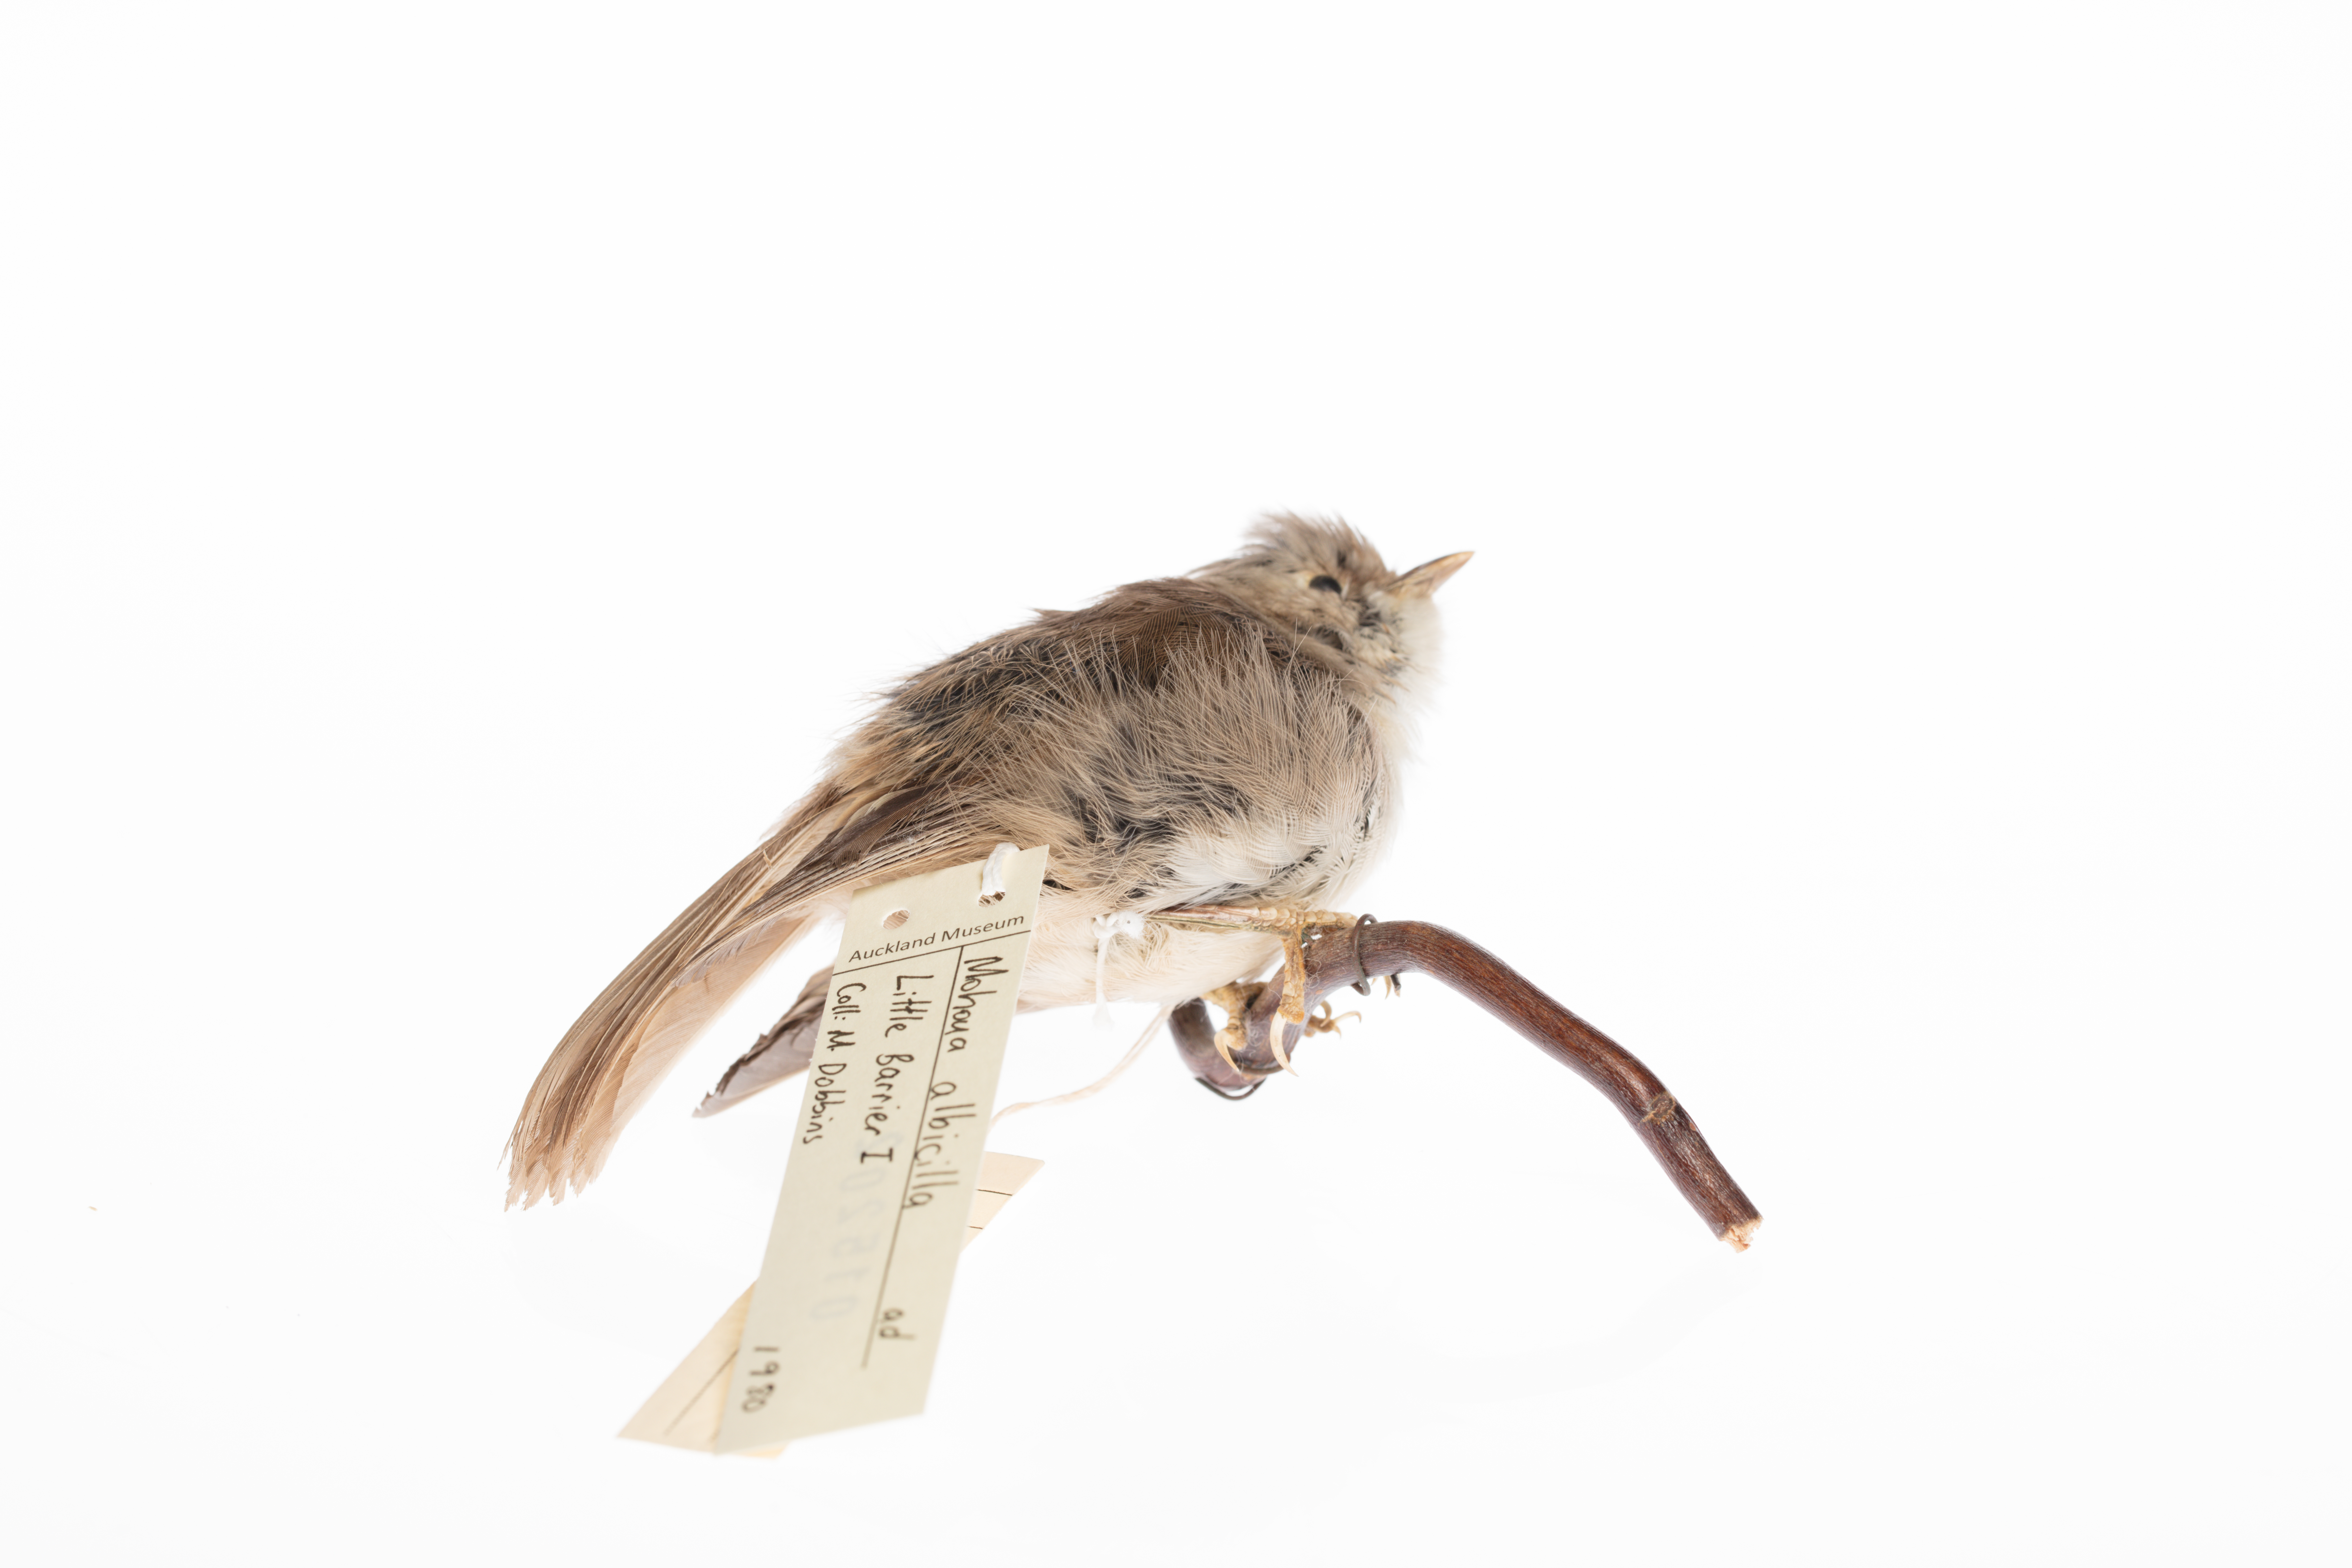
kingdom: Animalia
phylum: Chordata
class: Aves
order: Passeriformes
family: Acanthizidae
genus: Mohoua
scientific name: Mohoua albicilla
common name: Whitehead
